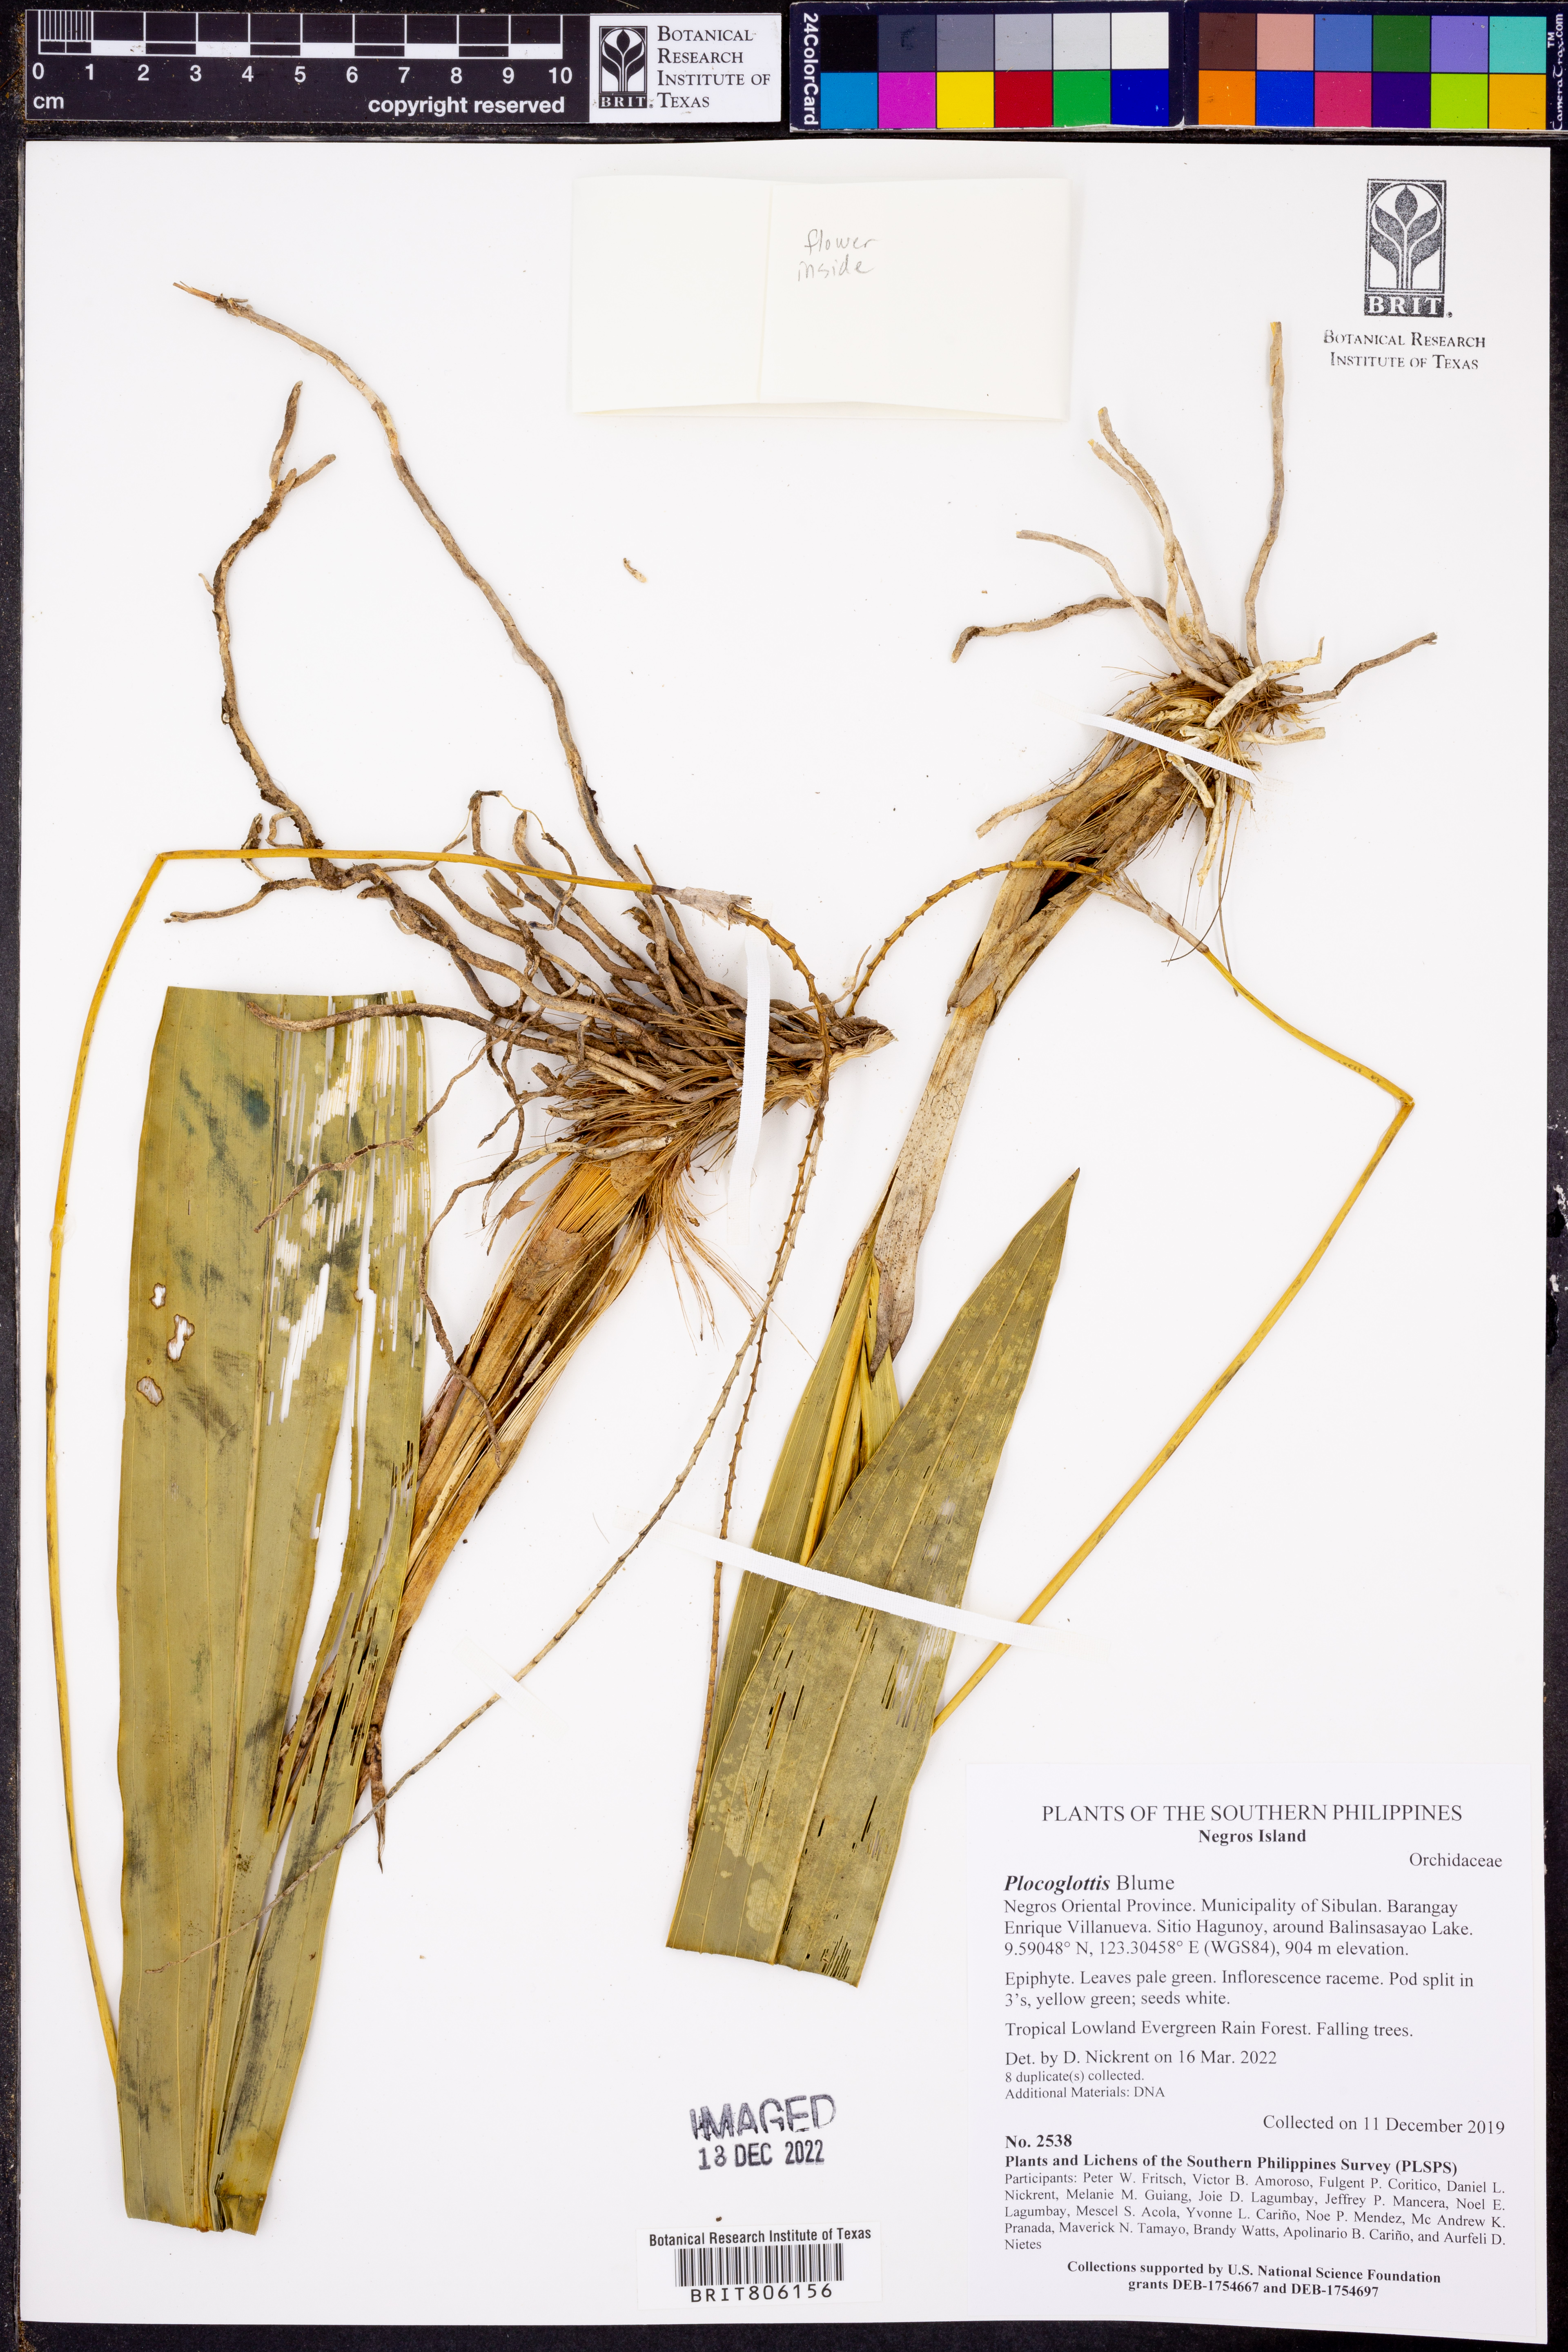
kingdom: Plantae
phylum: Tracheophyta
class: Liliopsida
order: Asparagales
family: Orchidaceae
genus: Plocoglottis
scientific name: Plocoglottis
